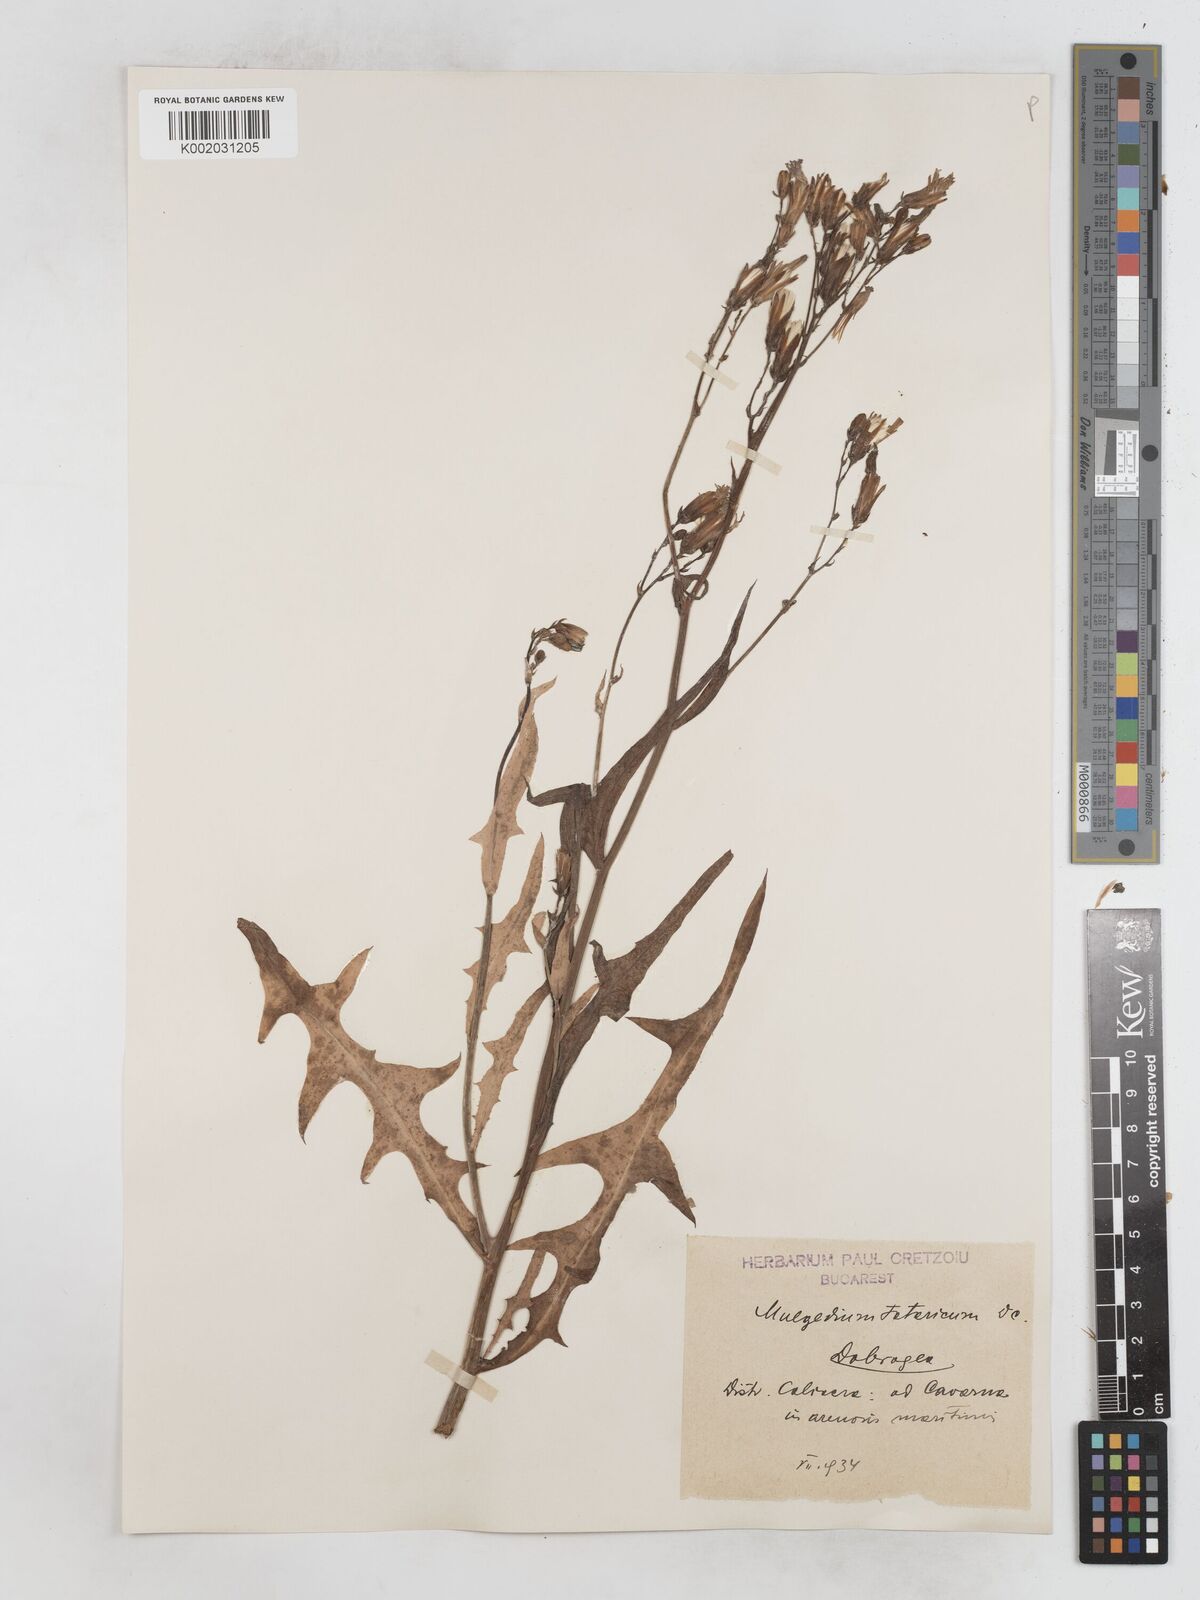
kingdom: Plantae
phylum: Tracheophyta
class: Magnoliopsida
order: Asterales
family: Asteraceae
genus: Lactuca
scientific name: Lactuca tatarica
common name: Blue lettuce
